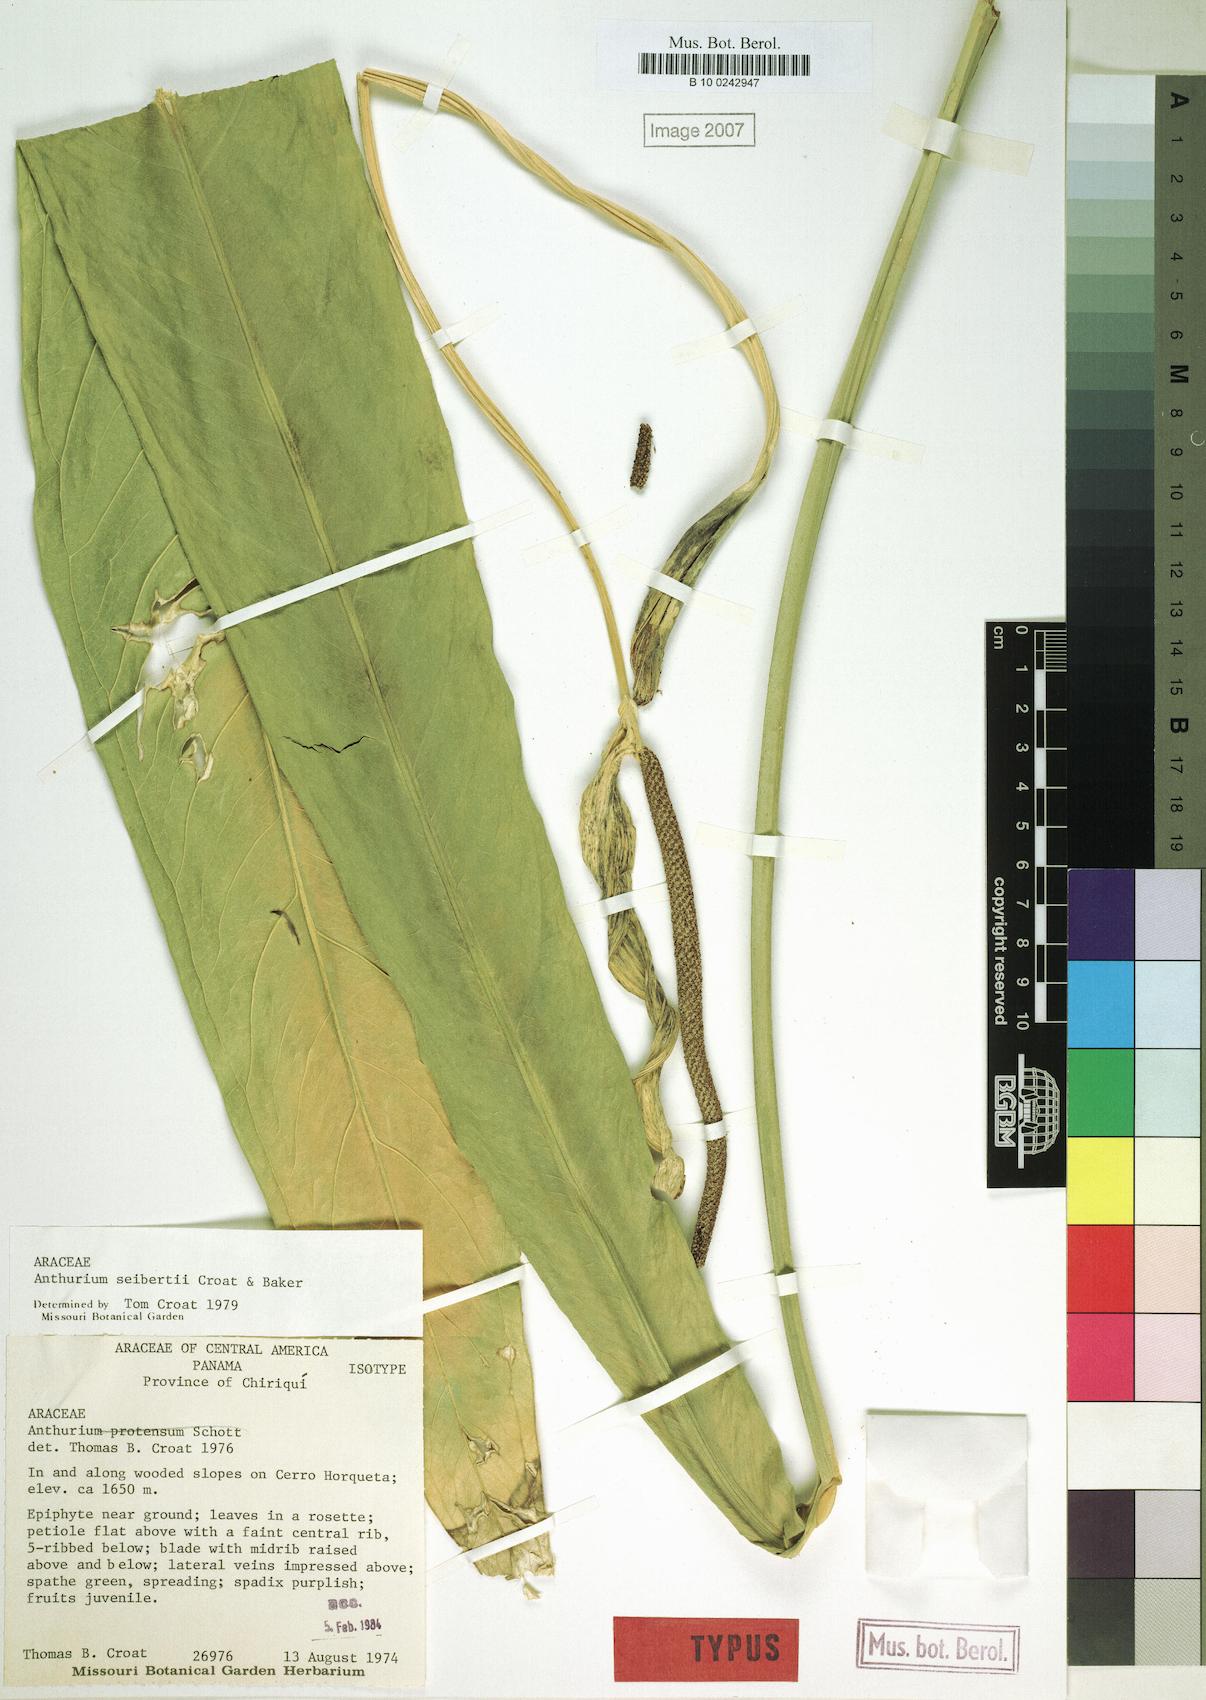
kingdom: Plantae
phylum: Tracheophyta
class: Liliopsida
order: Alismatales
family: Araceae
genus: Anthurium
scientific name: Anthurium seibertii
